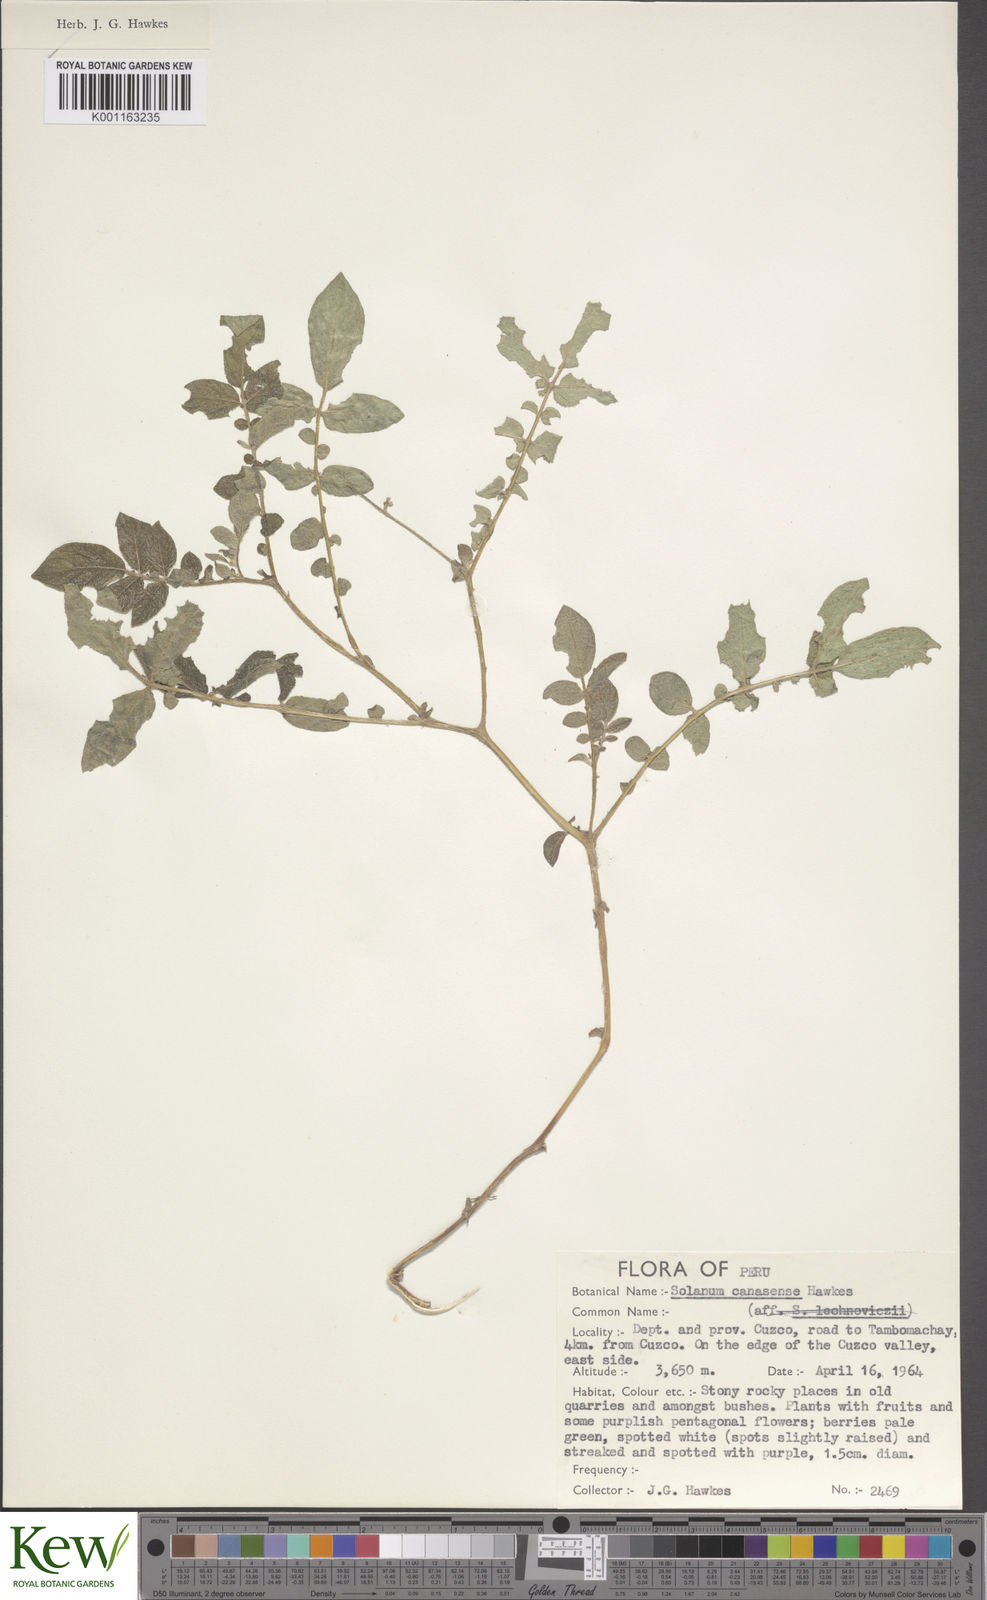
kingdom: Plantae
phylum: Tracheophyta
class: Magnoliopsida
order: Solanales
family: Solanaceae
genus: Solanum
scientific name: Solanum candolleanum
